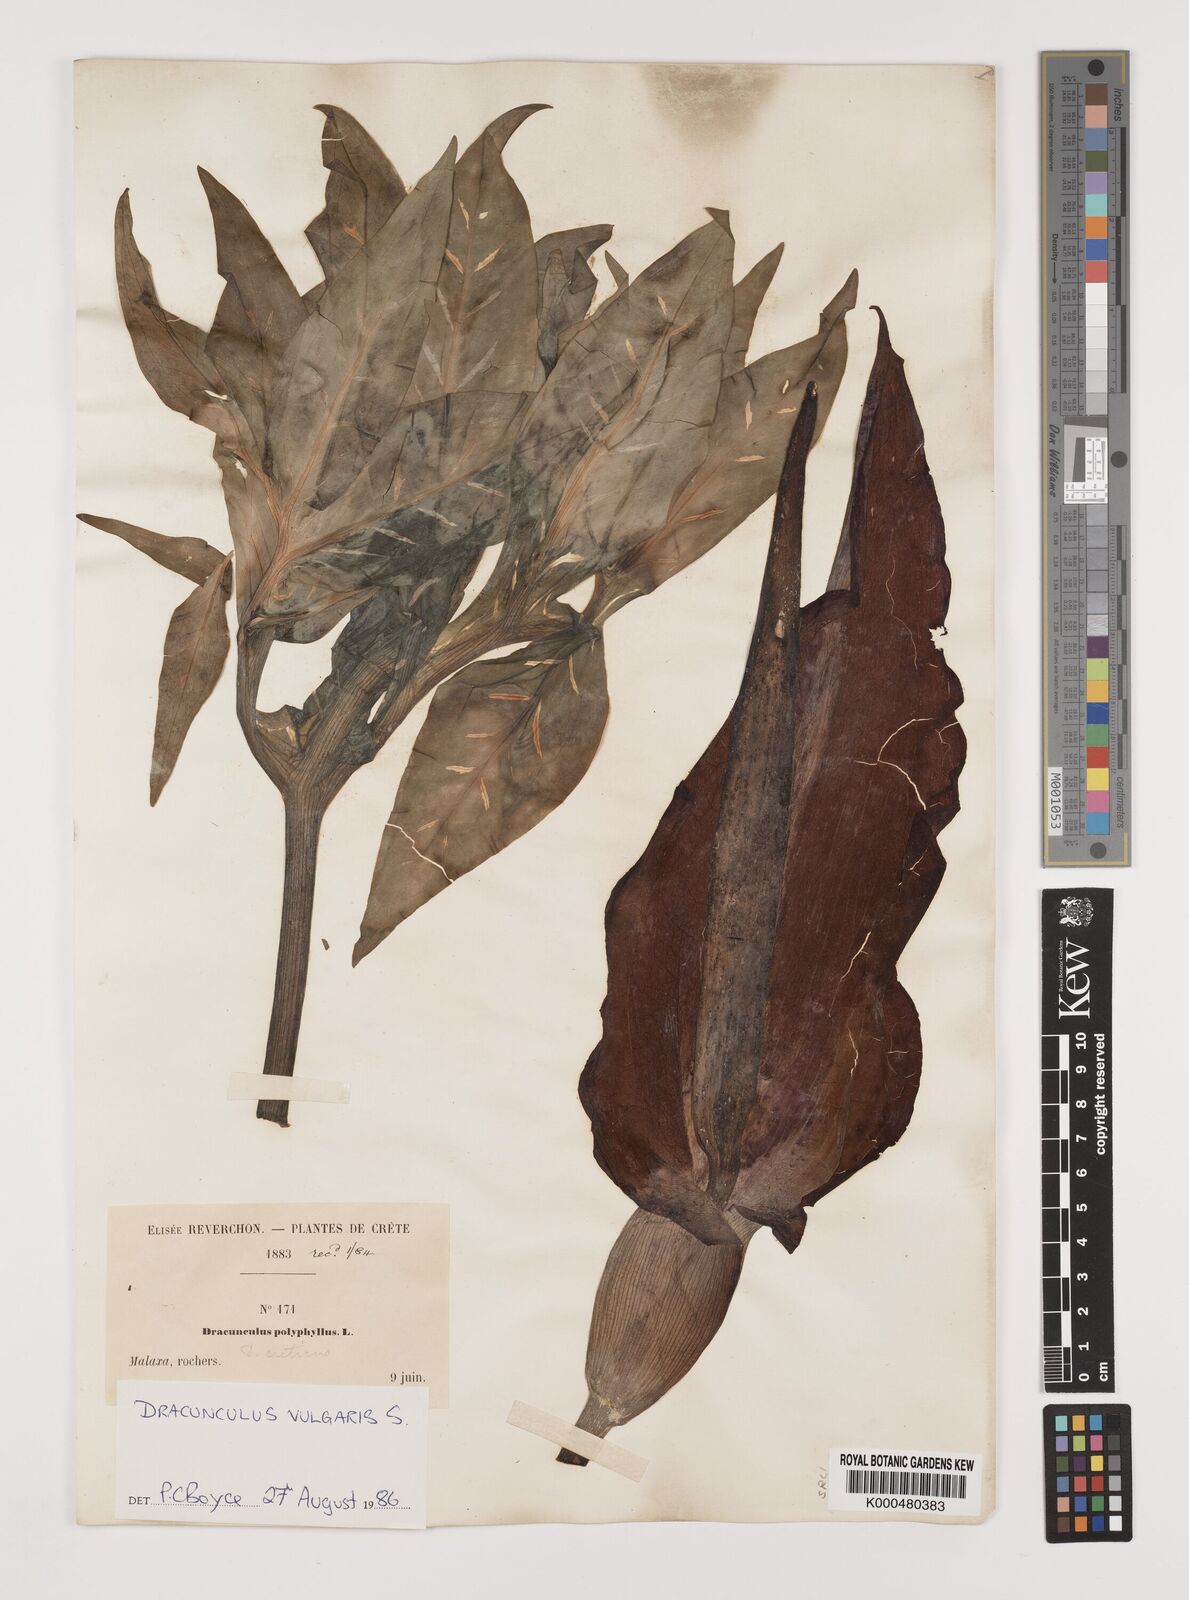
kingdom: Plantae
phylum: Tracheophyta
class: Liliopsida
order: Alismatales
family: Araceae
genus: Dracunculus
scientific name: Dracunculus vulgaris
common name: Dragon arum
